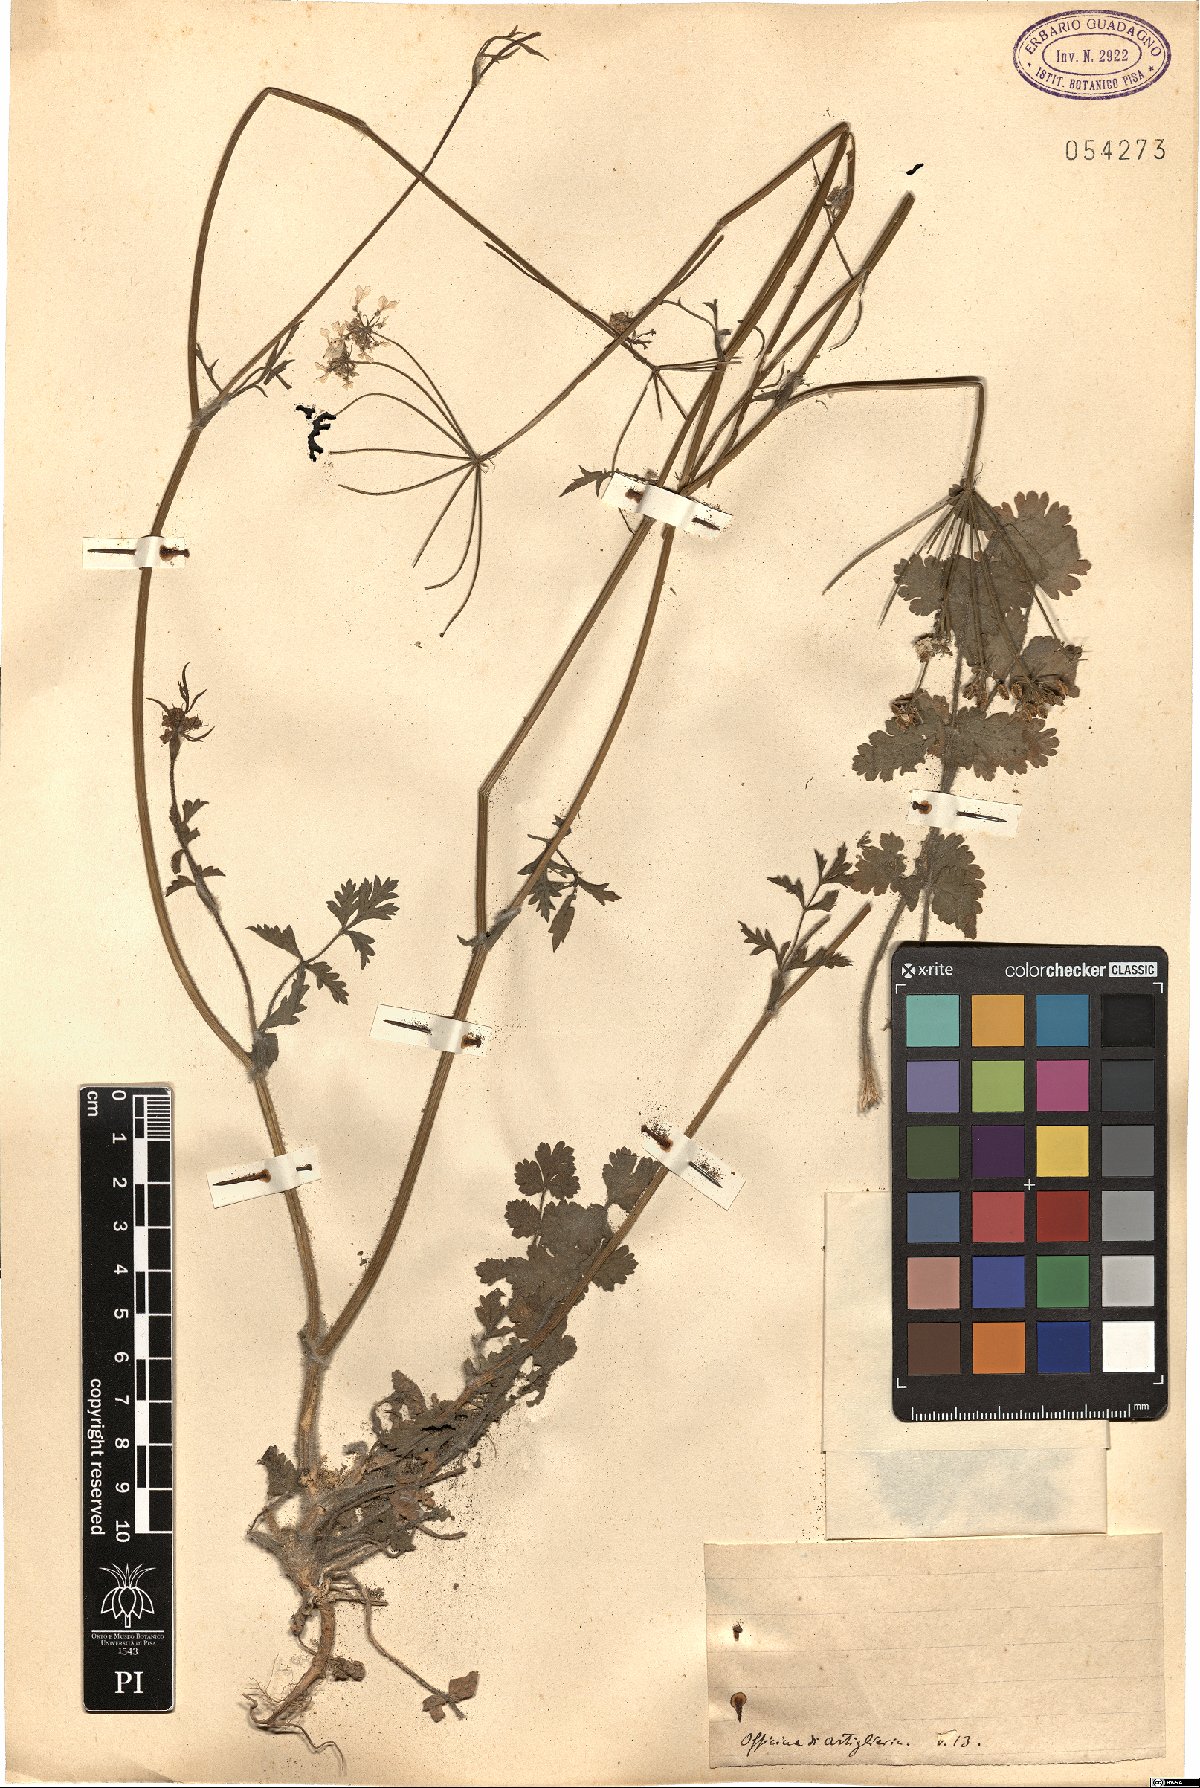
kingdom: Plantae
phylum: Tracheophyta
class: Magnoliopsida
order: Apiales
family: Apiaceae
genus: Tordylium
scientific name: Tordylium
